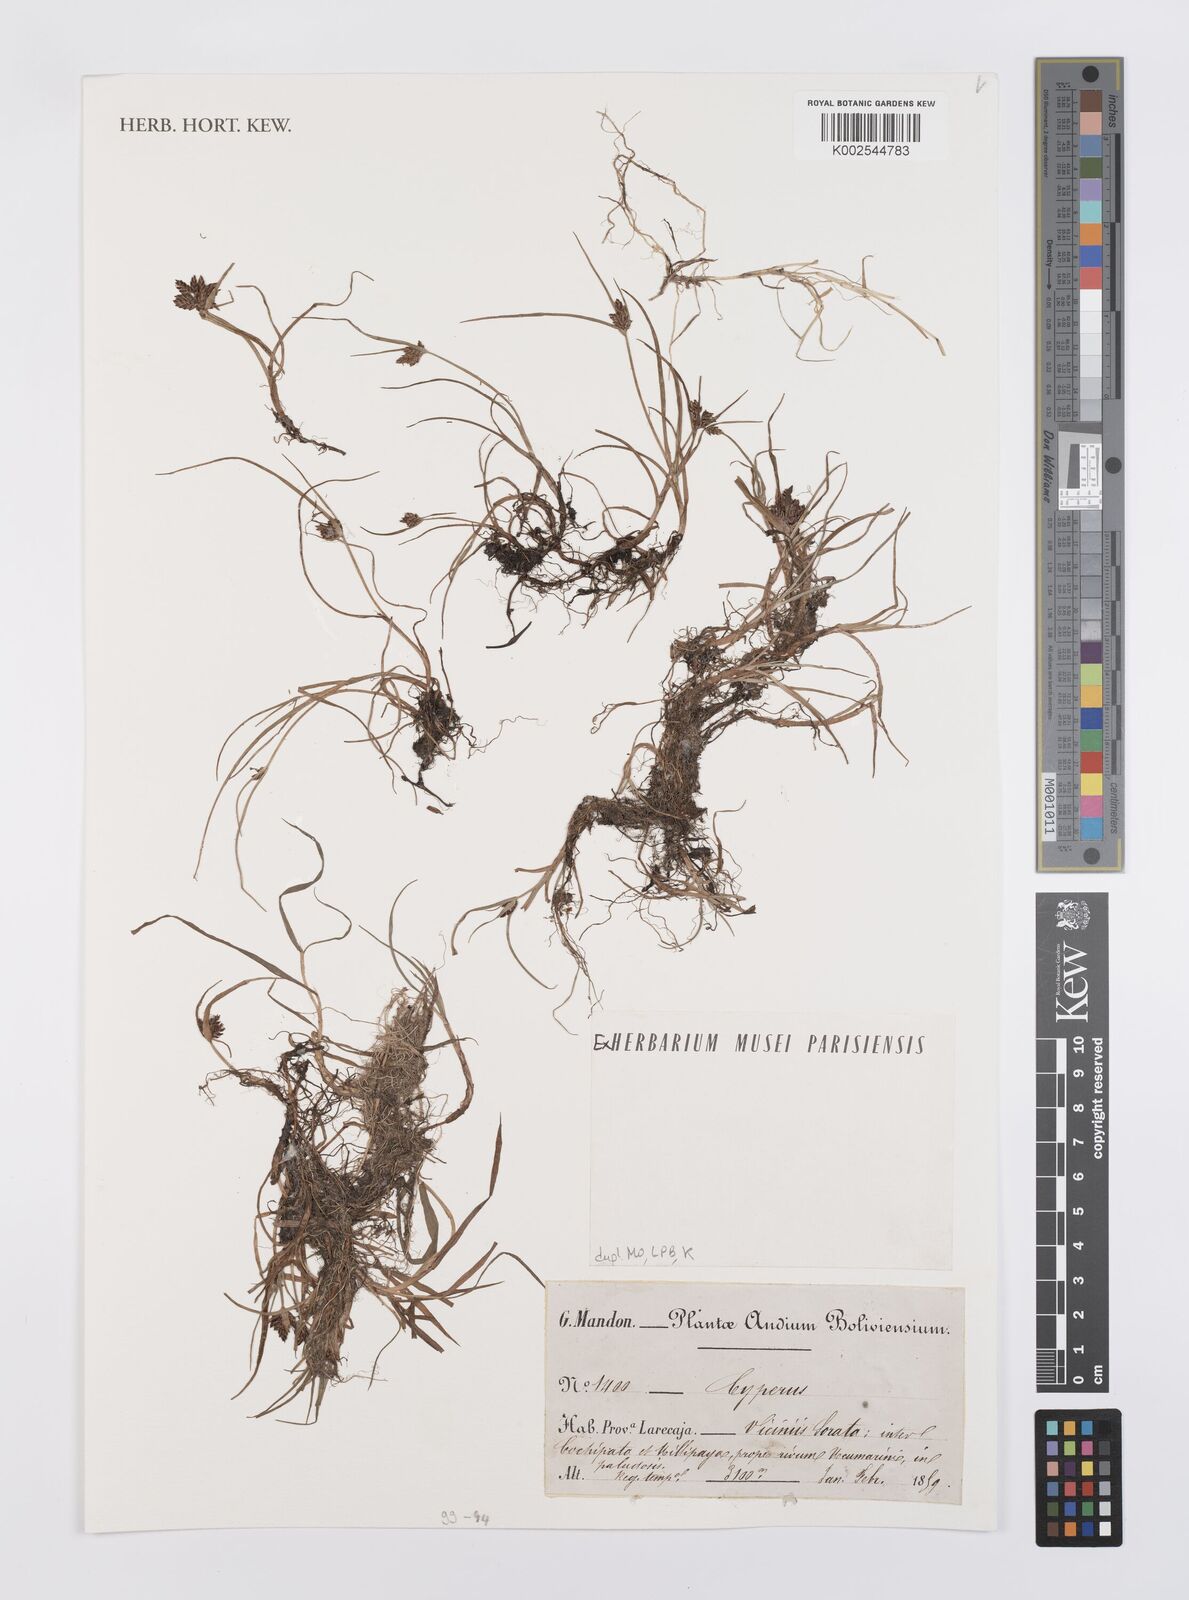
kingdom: Plantae
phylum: Tracheophyta
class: Liliopsida
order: Poales
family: Cyperaceae
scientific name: Cyperaceae
